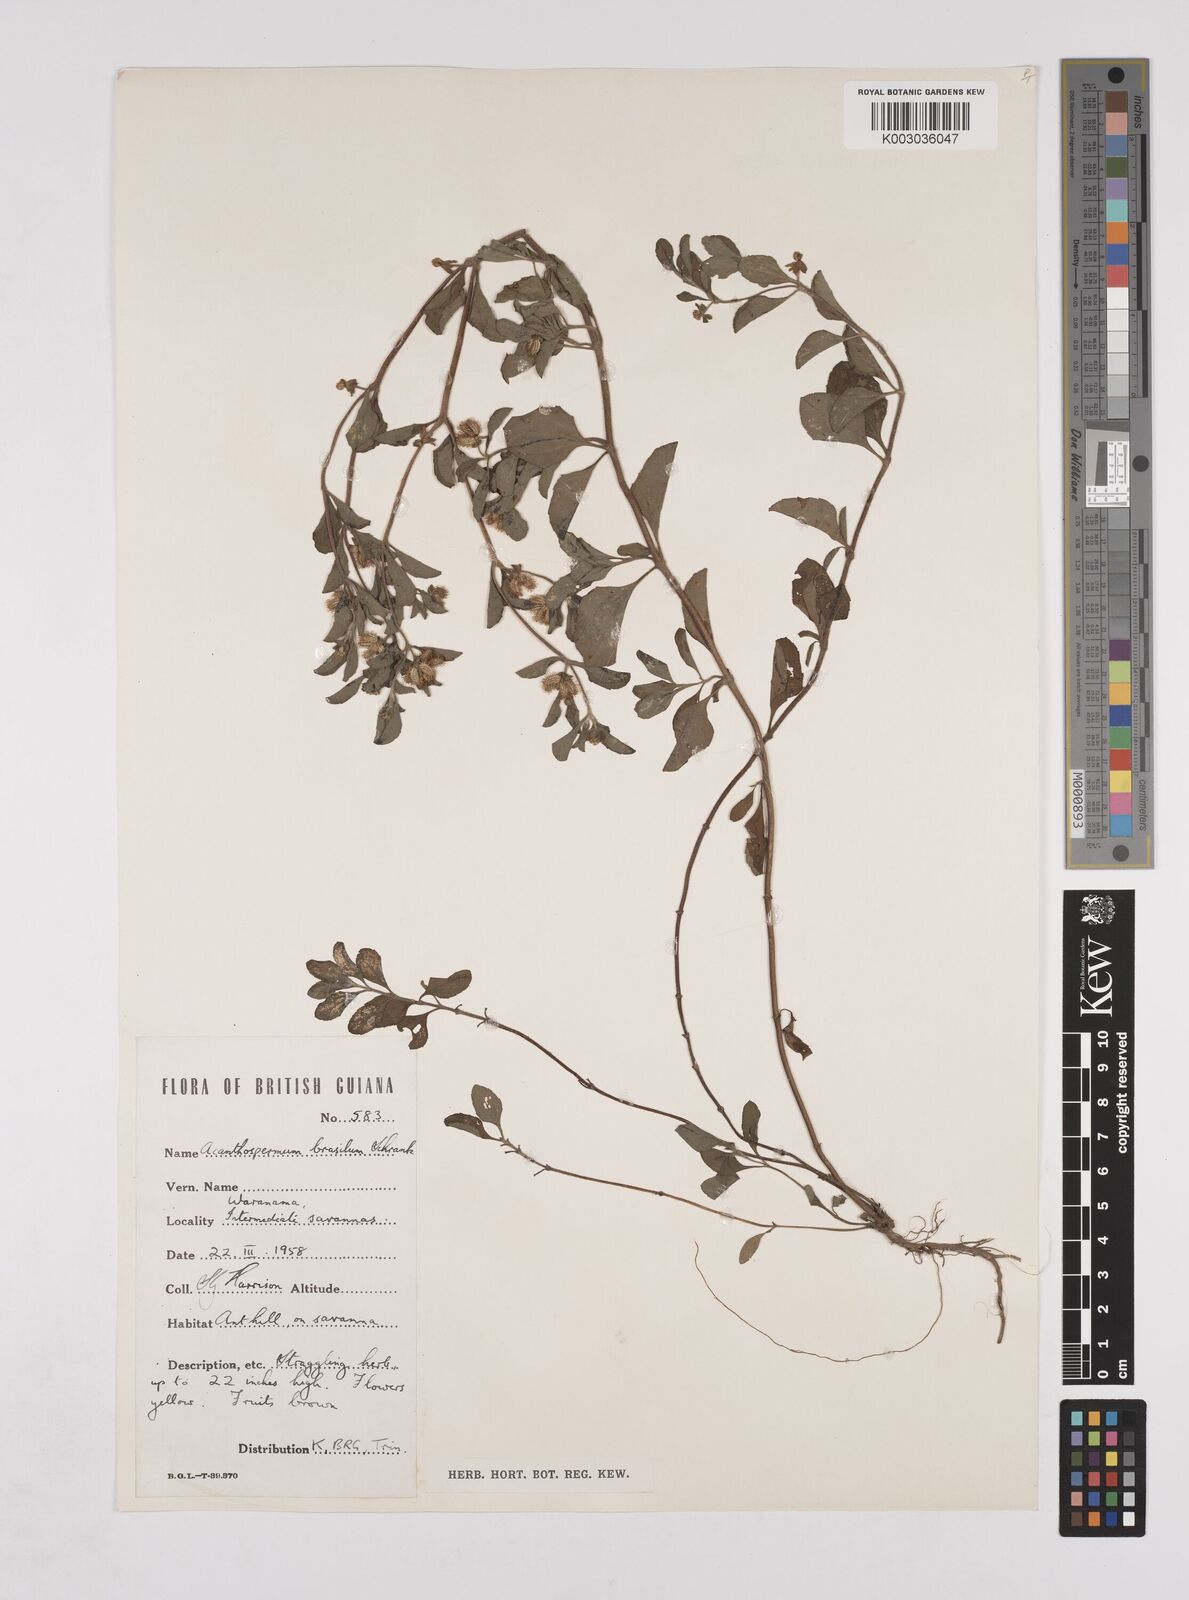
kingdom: Plantae
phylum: Tracheophyta
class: Magnoliopsida
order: Asterales
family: Asteraceae
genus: Acanthospermum
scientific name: Acanthospermum australe
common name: Paraguayan starbur
